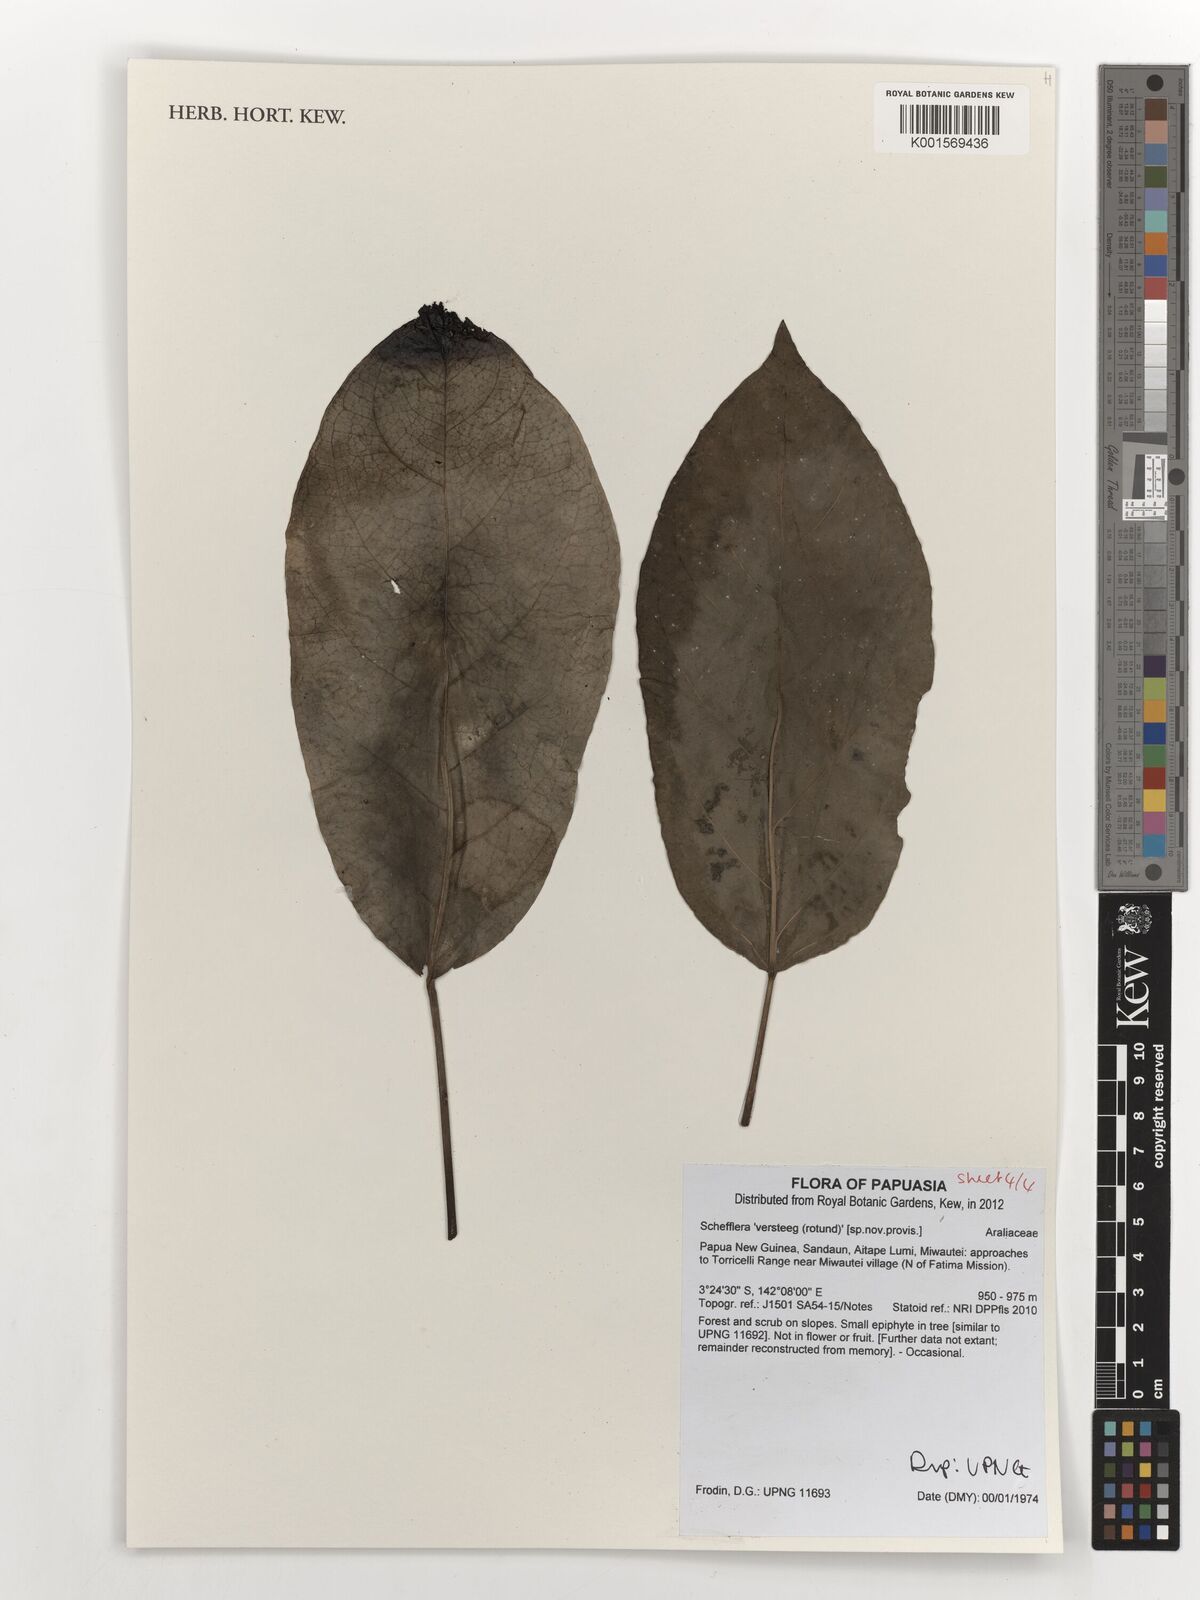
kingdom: Plantae
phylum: Tracheophyta
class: Magnoliopsida
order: Apiales
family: Araliaceae
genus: Schefflera
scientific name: Schefflera
